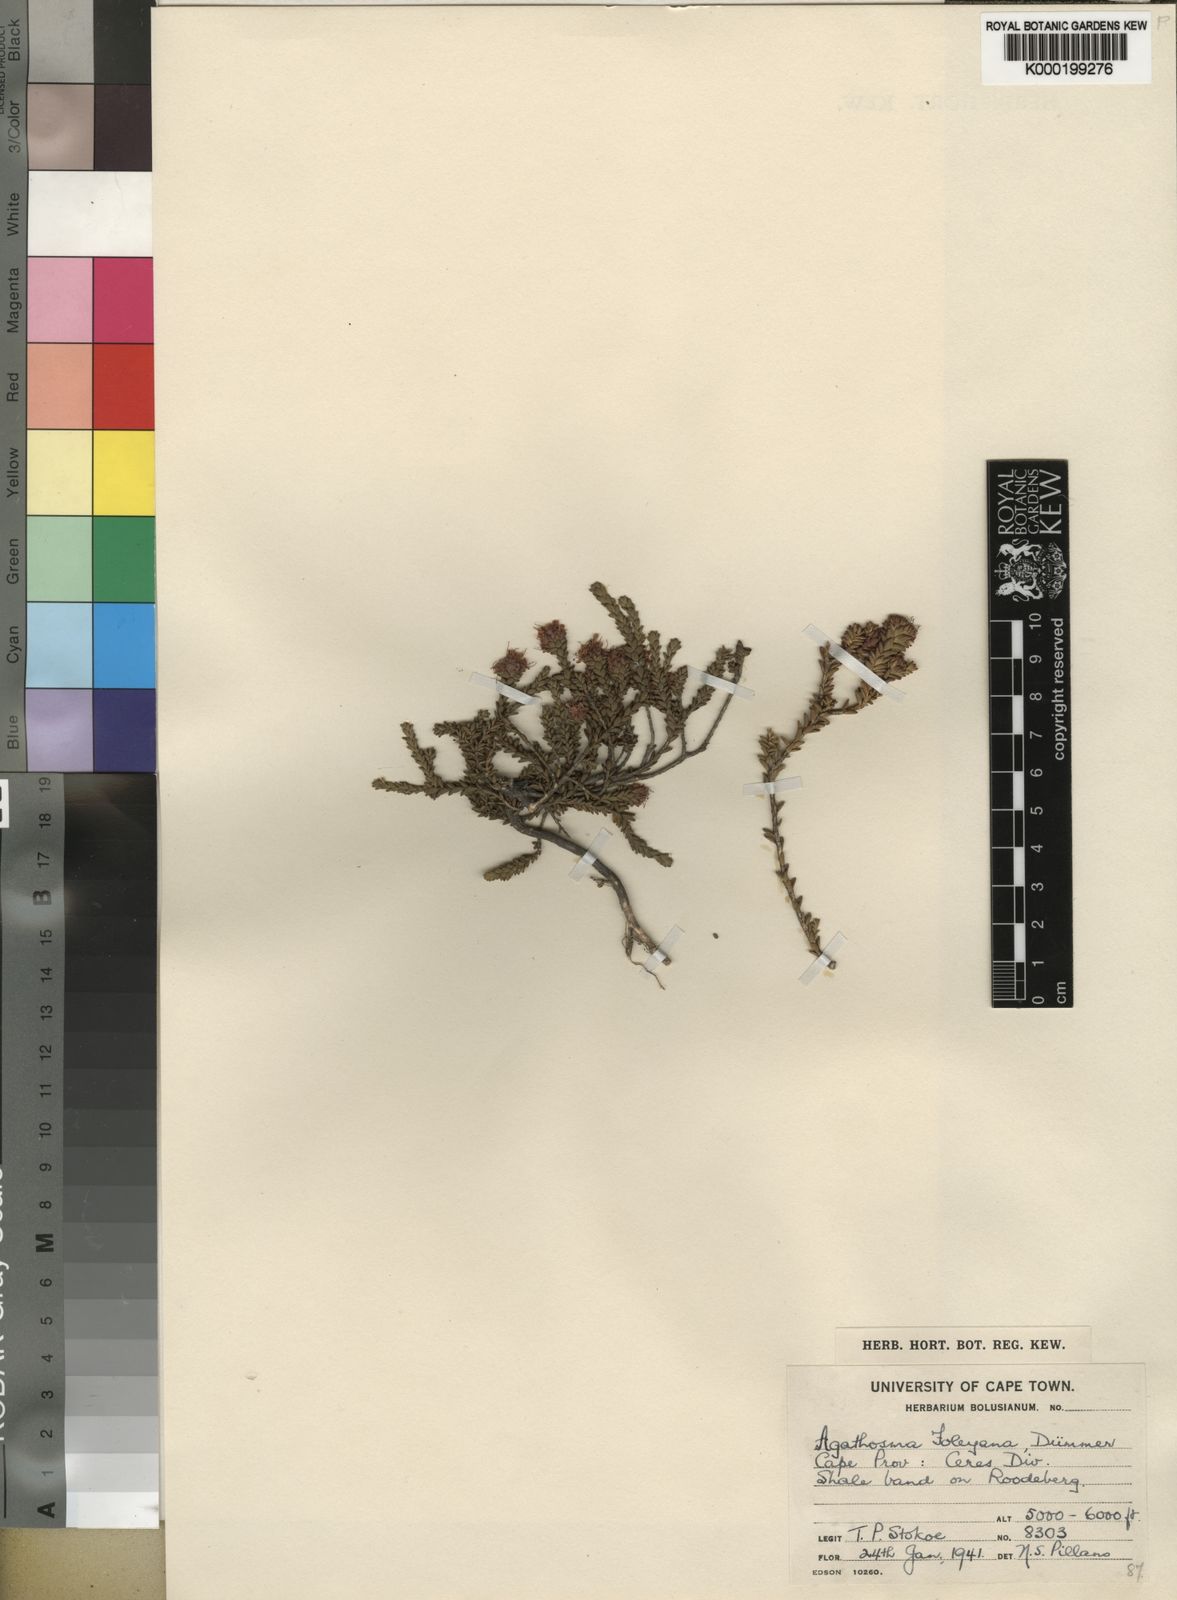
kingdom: Plantae
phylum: Tracheophyta
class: Magnoliopsida
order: Sapindales
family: Rutaceae
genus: Agathosma
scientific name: Agathosma foleyana
